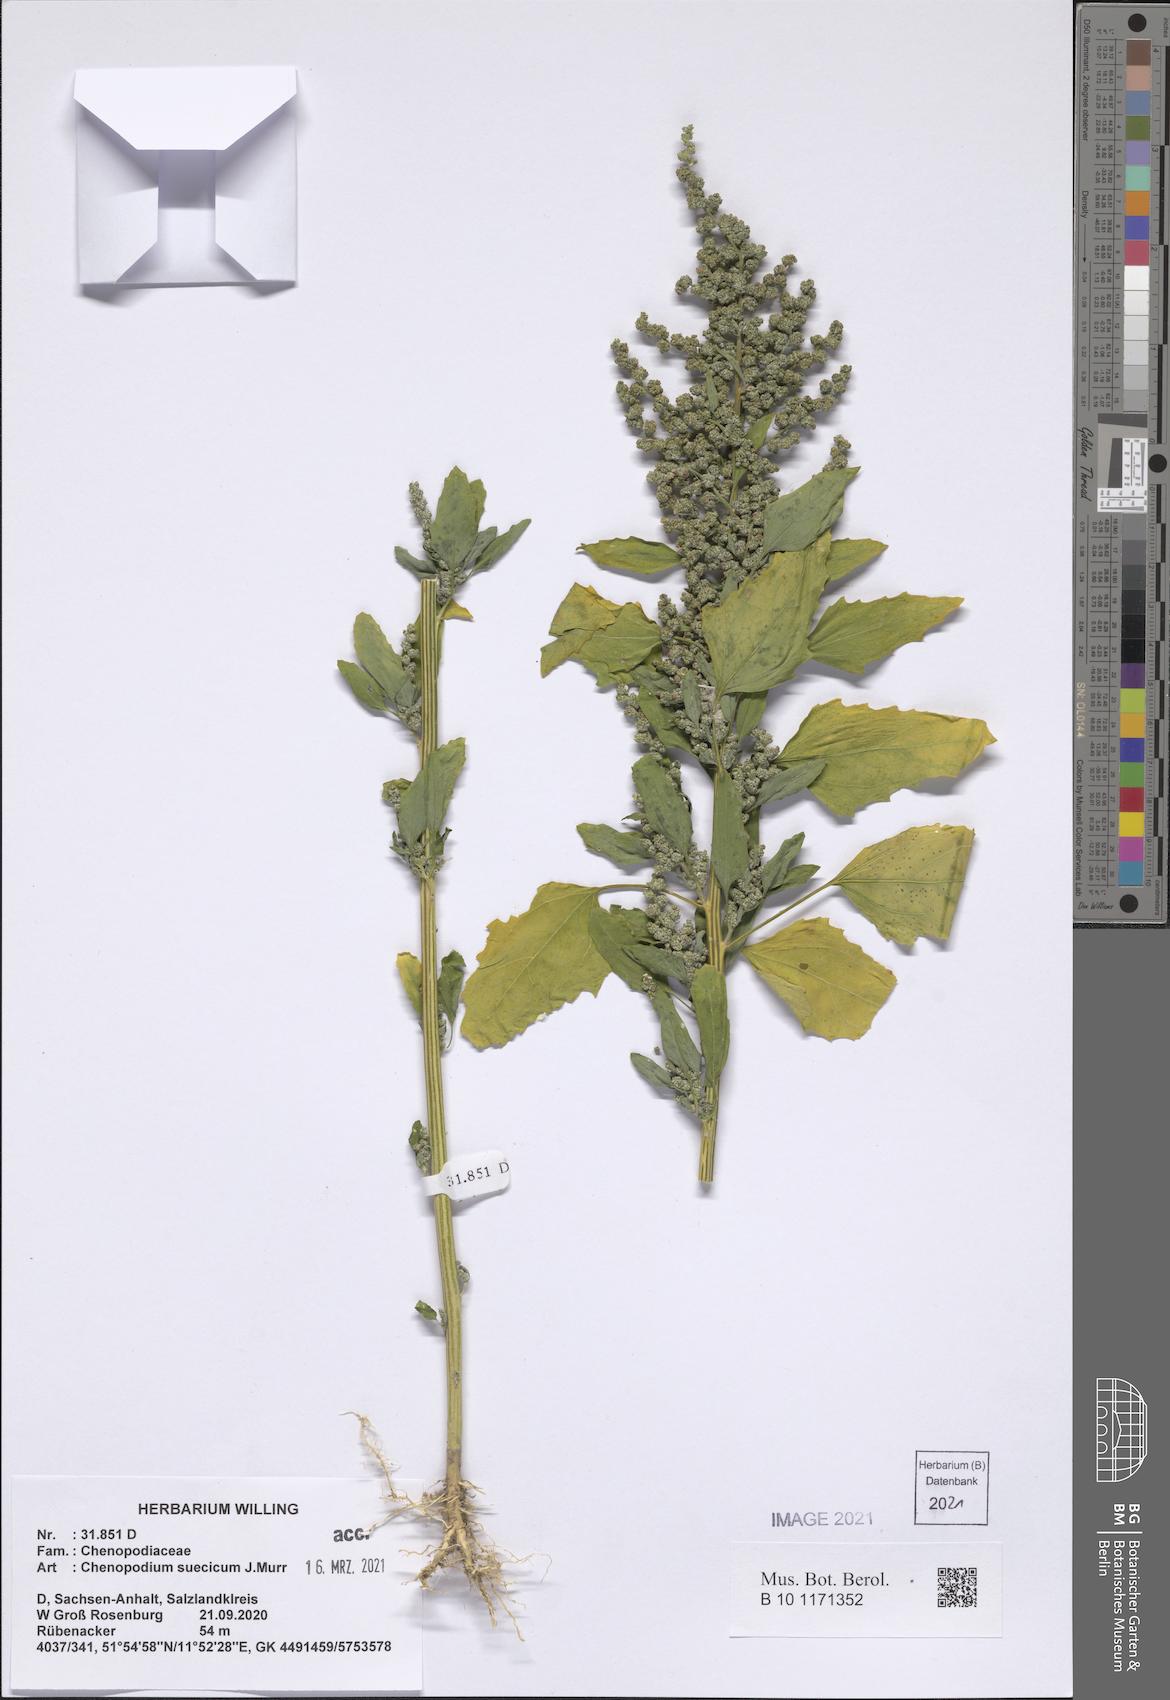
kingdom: Plantae
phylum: Tracheophyta
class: Magnoliopsida
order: Caryophyllales
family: Amaranthaceae
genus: Chenopodium
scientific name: Chenopodium suecicum
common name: Swedish goosefoot
